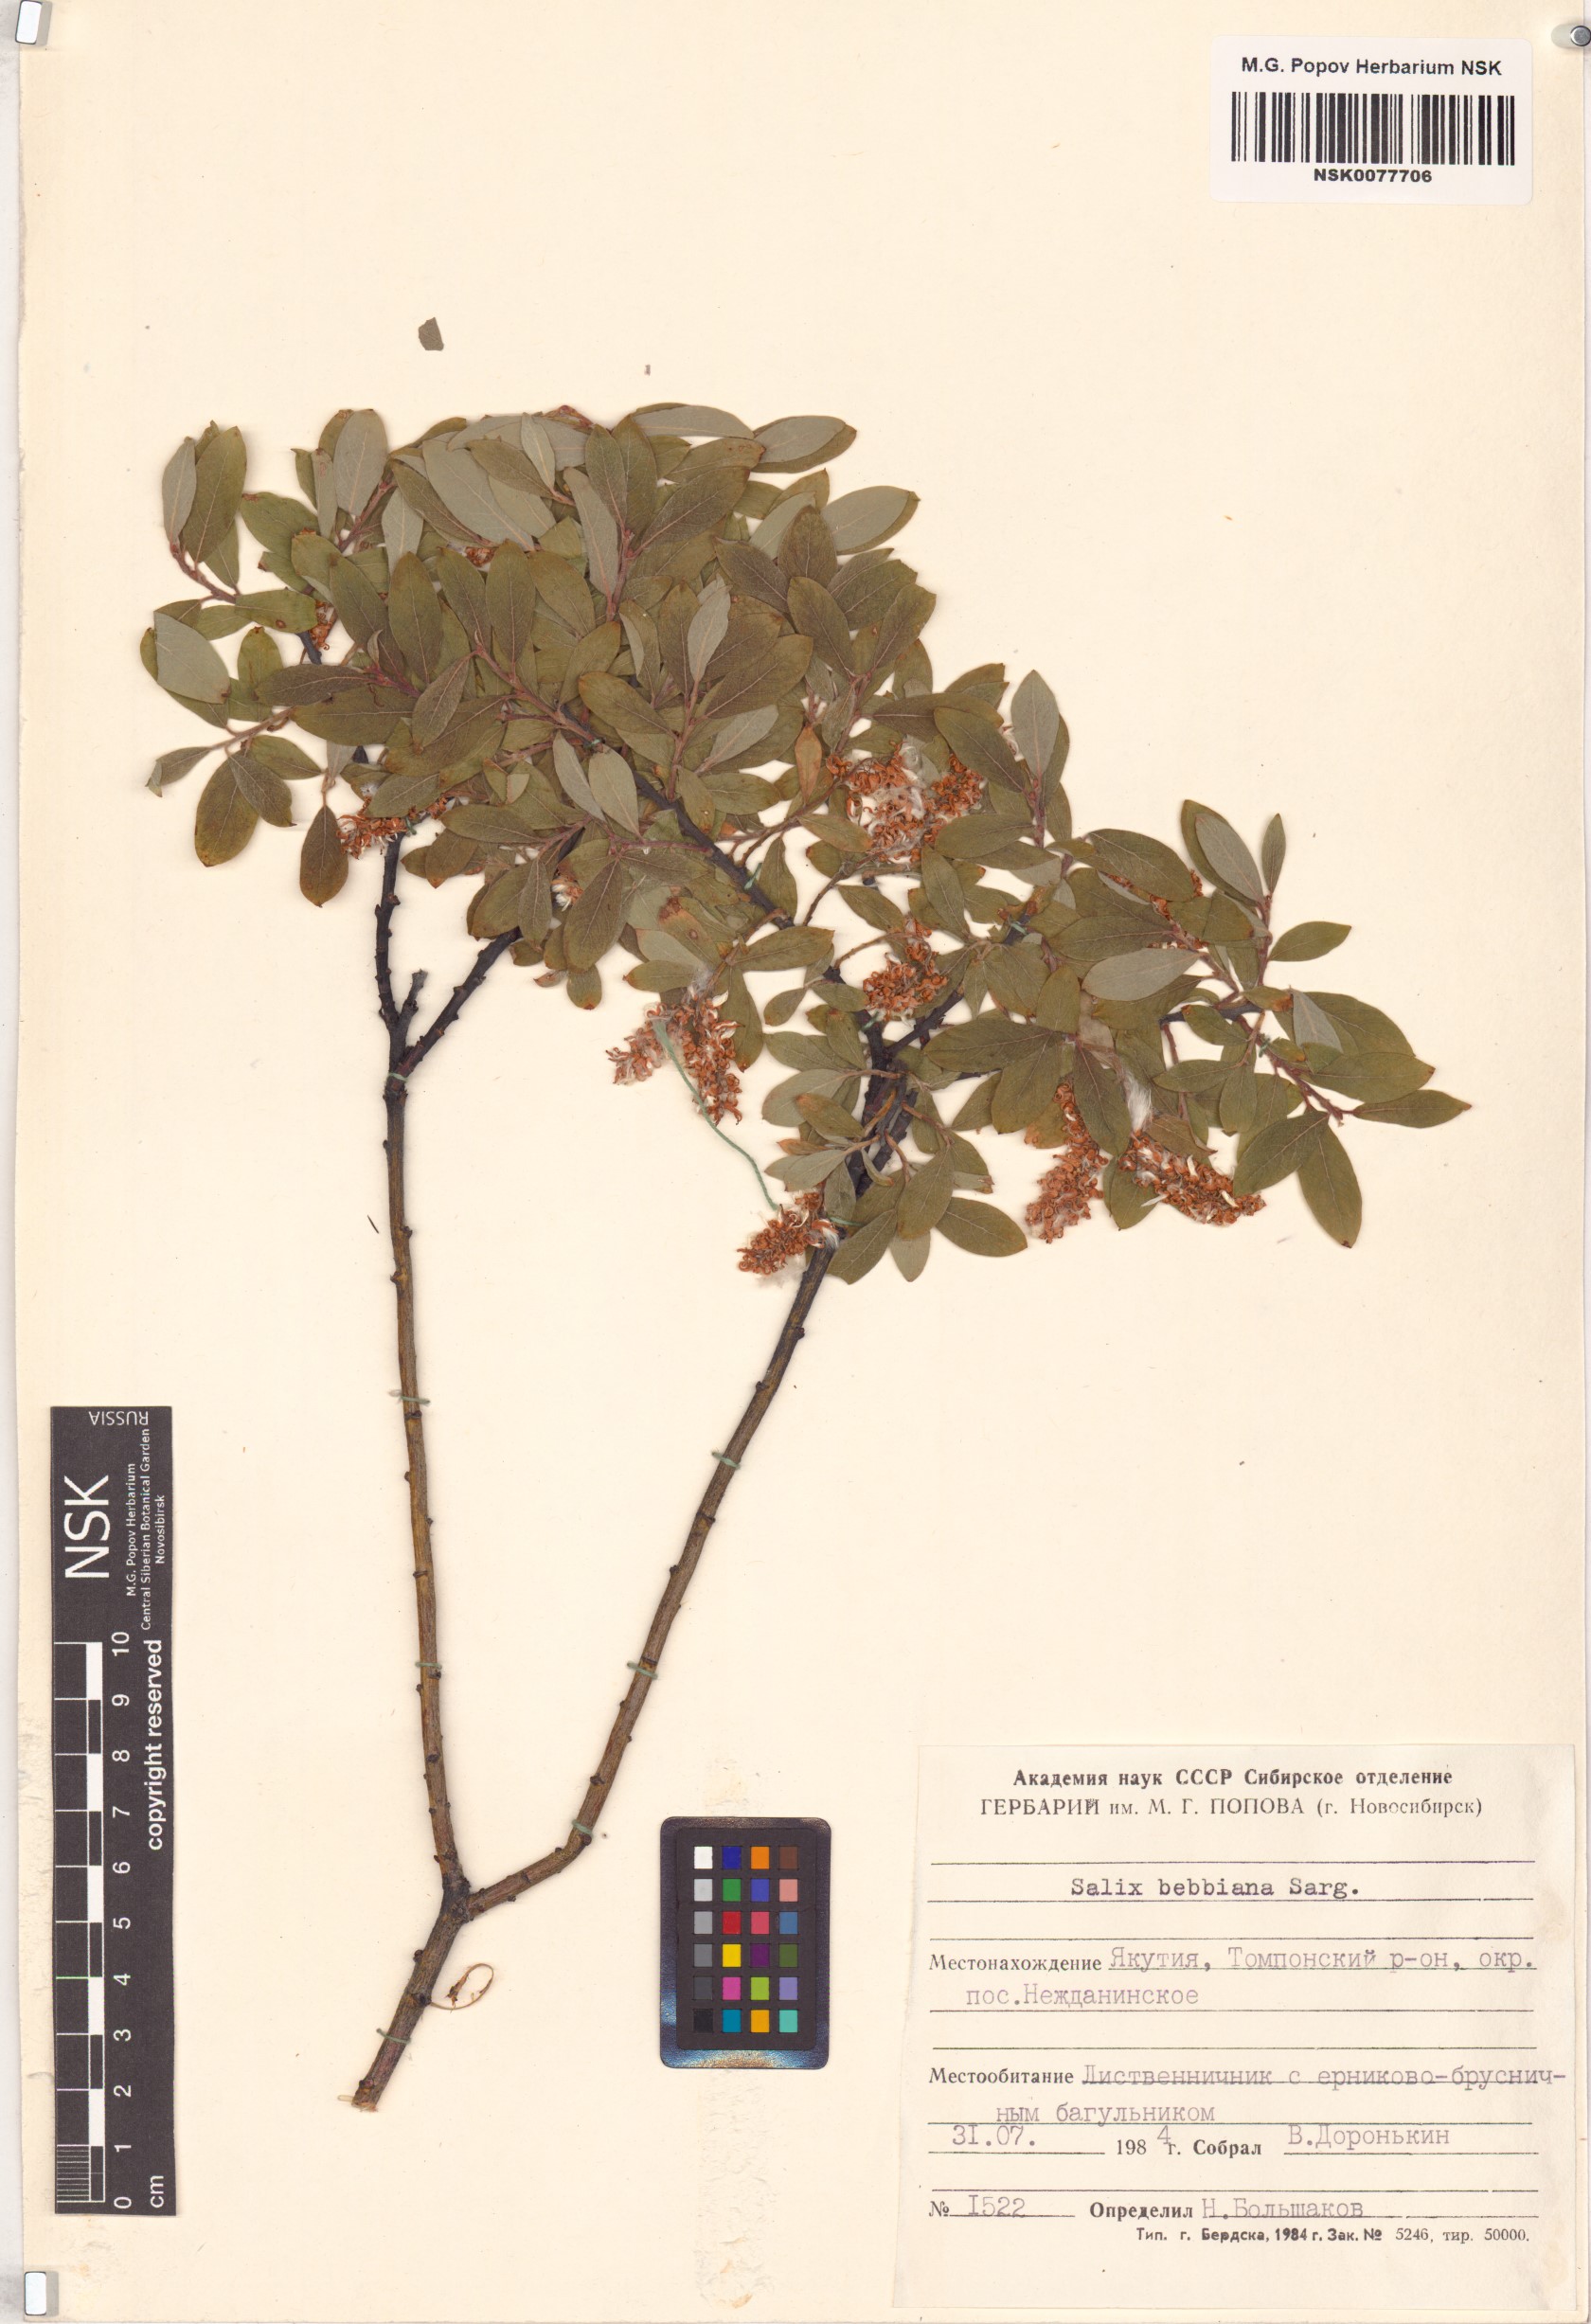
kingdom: Plantae
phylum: Tracheophyta
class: Magnoliopsida
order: Malpighiales
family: Salicaceae
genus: Salix
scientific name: Salix bebbiana
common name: Bebb's willow
